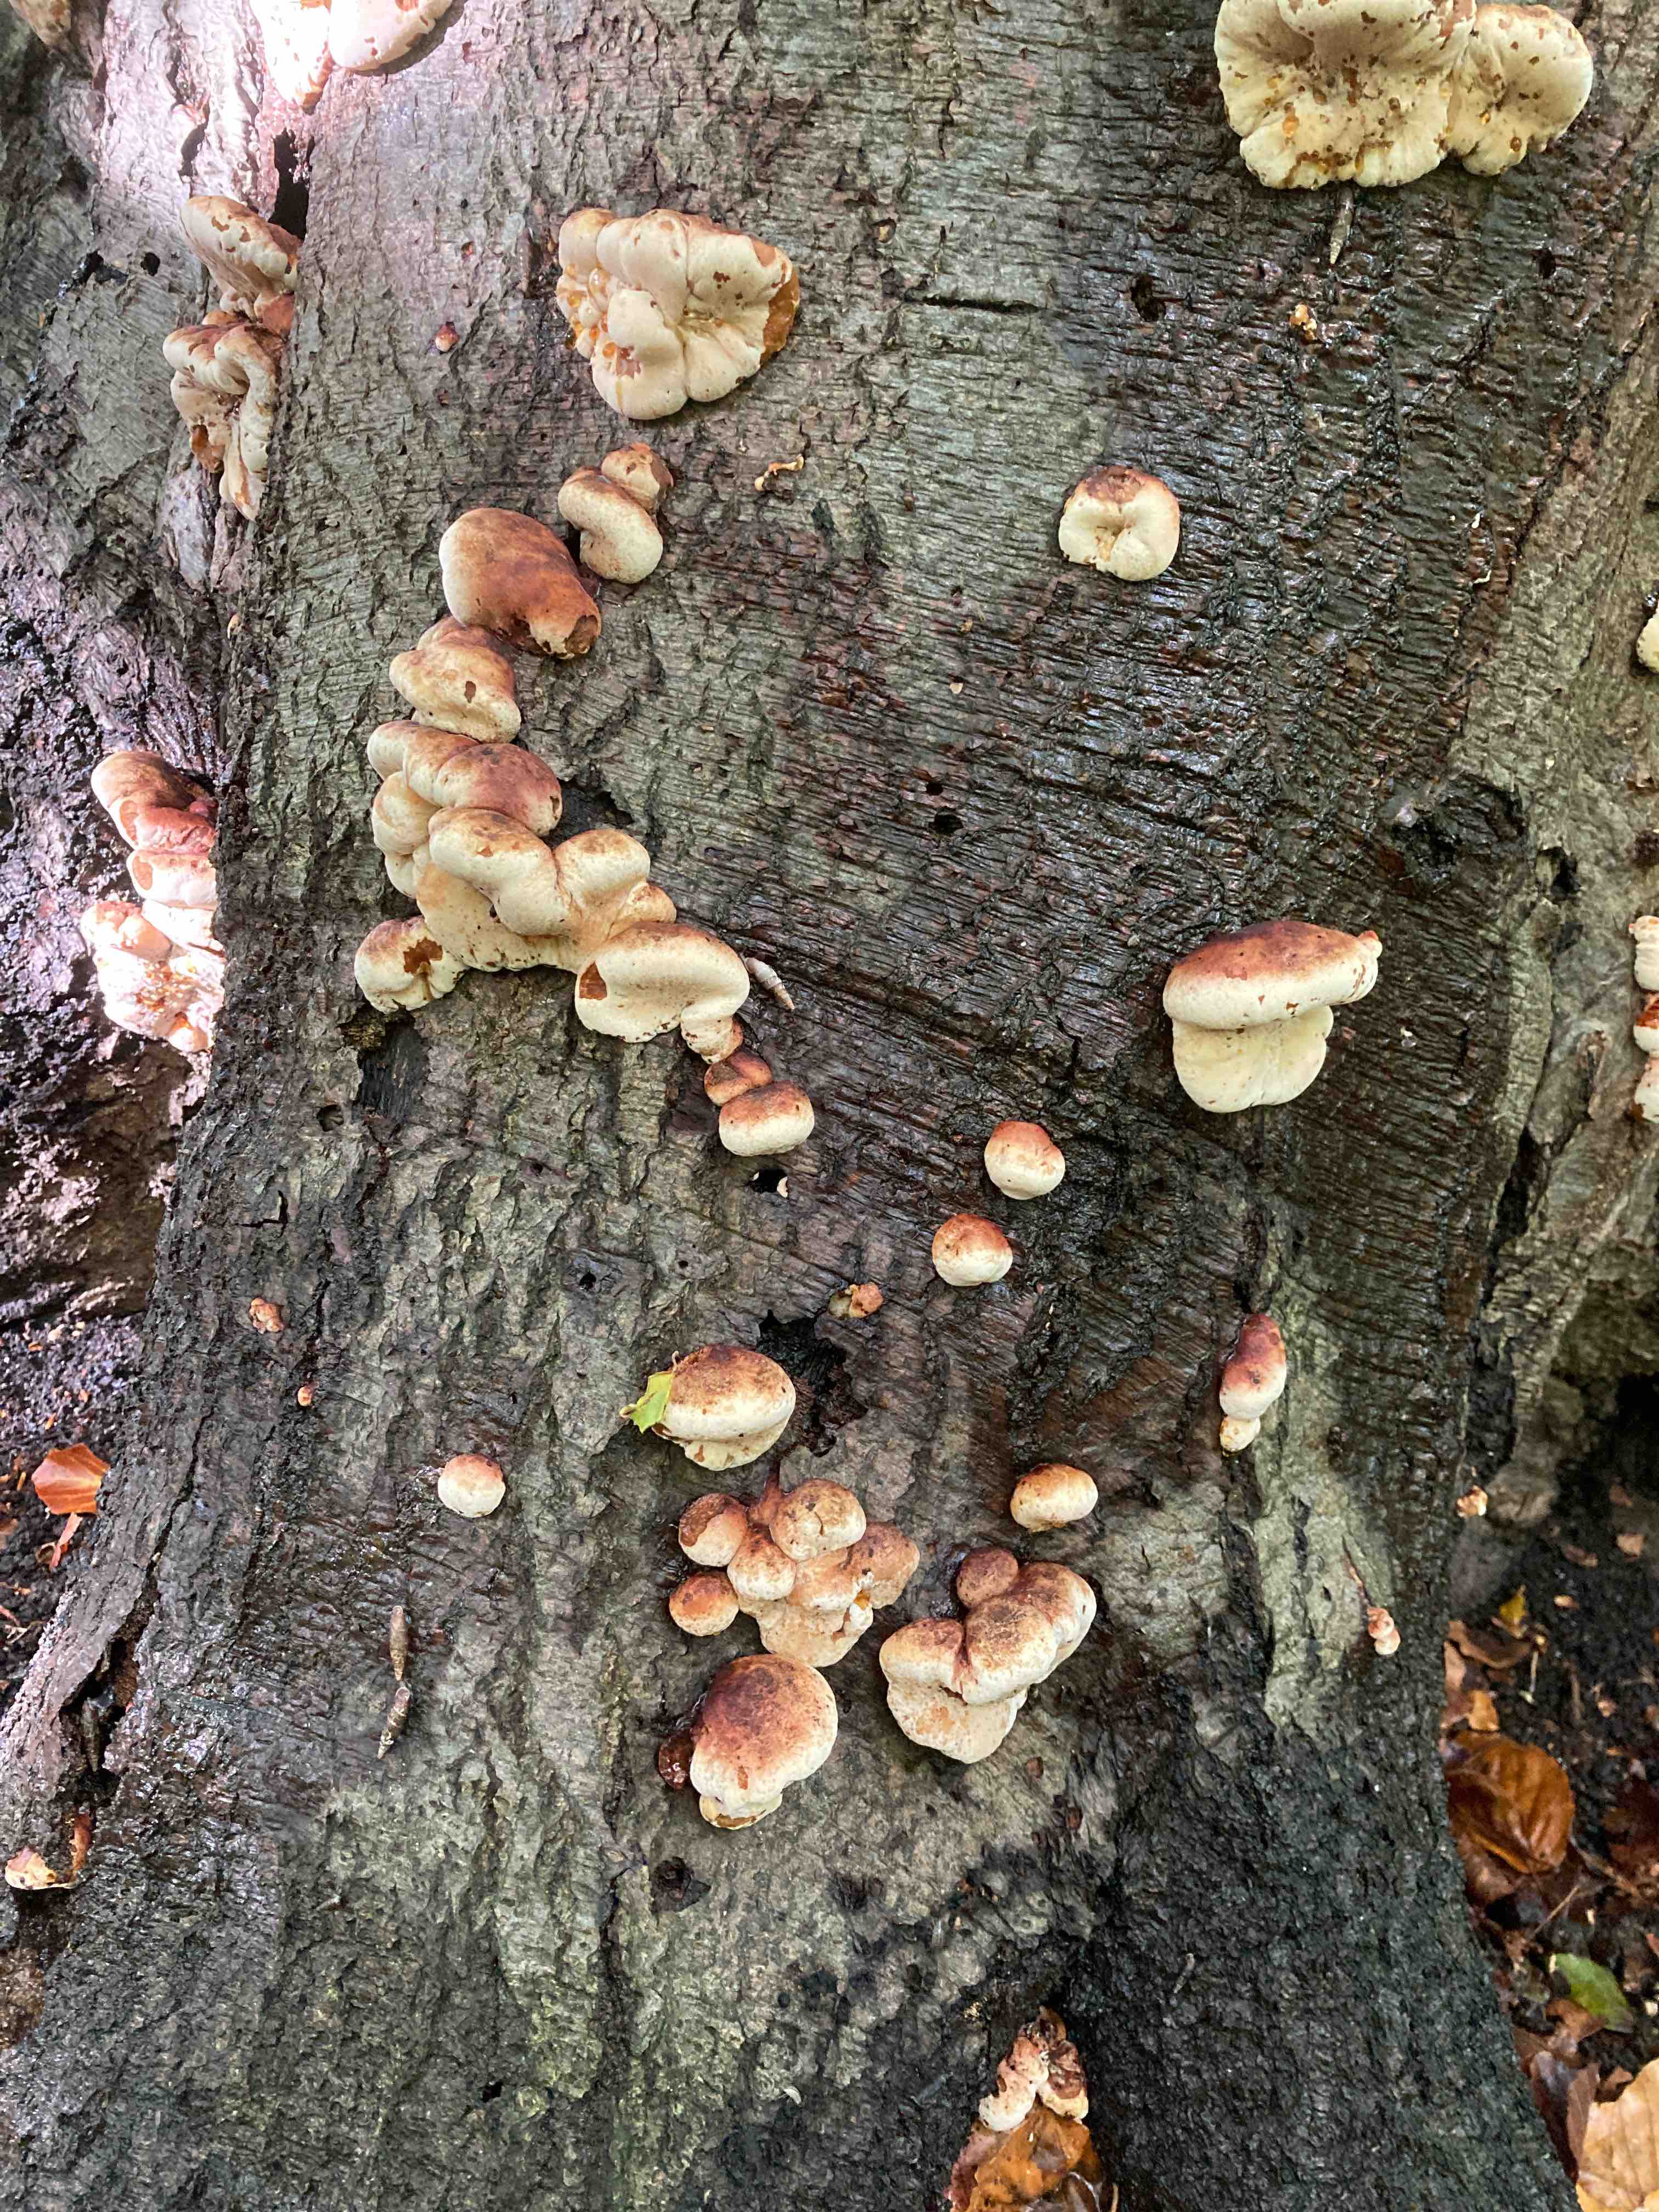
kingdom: Fungi
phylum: Basidiomycota
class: Agaricomycetes
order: Polyporales
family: Ischnodermataceae
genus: Ischnoderma
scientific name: Ischnoderma resinosum
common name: løv-tjæreporesvamp
